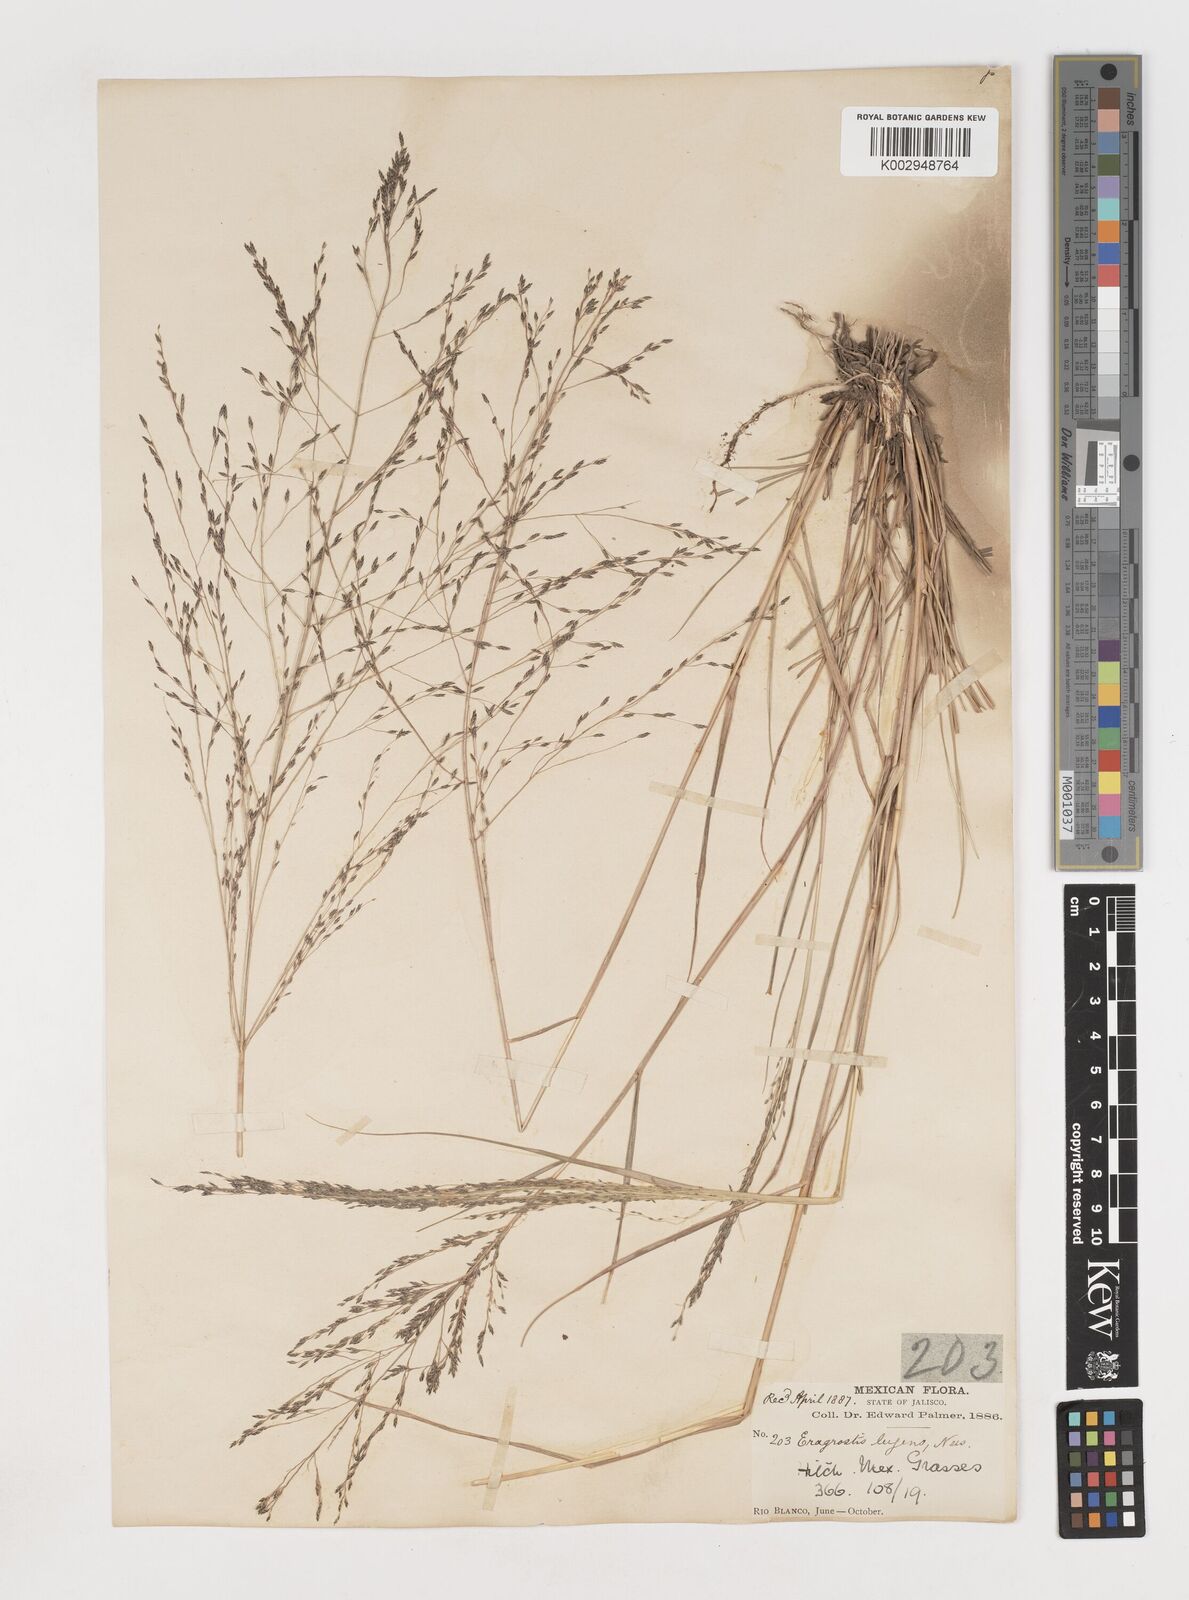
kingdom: Plantae
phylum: Tracheophyta
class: Liliopsida
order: Poales
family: Poaceae
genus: Eragrostis
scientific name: Eragrostis
